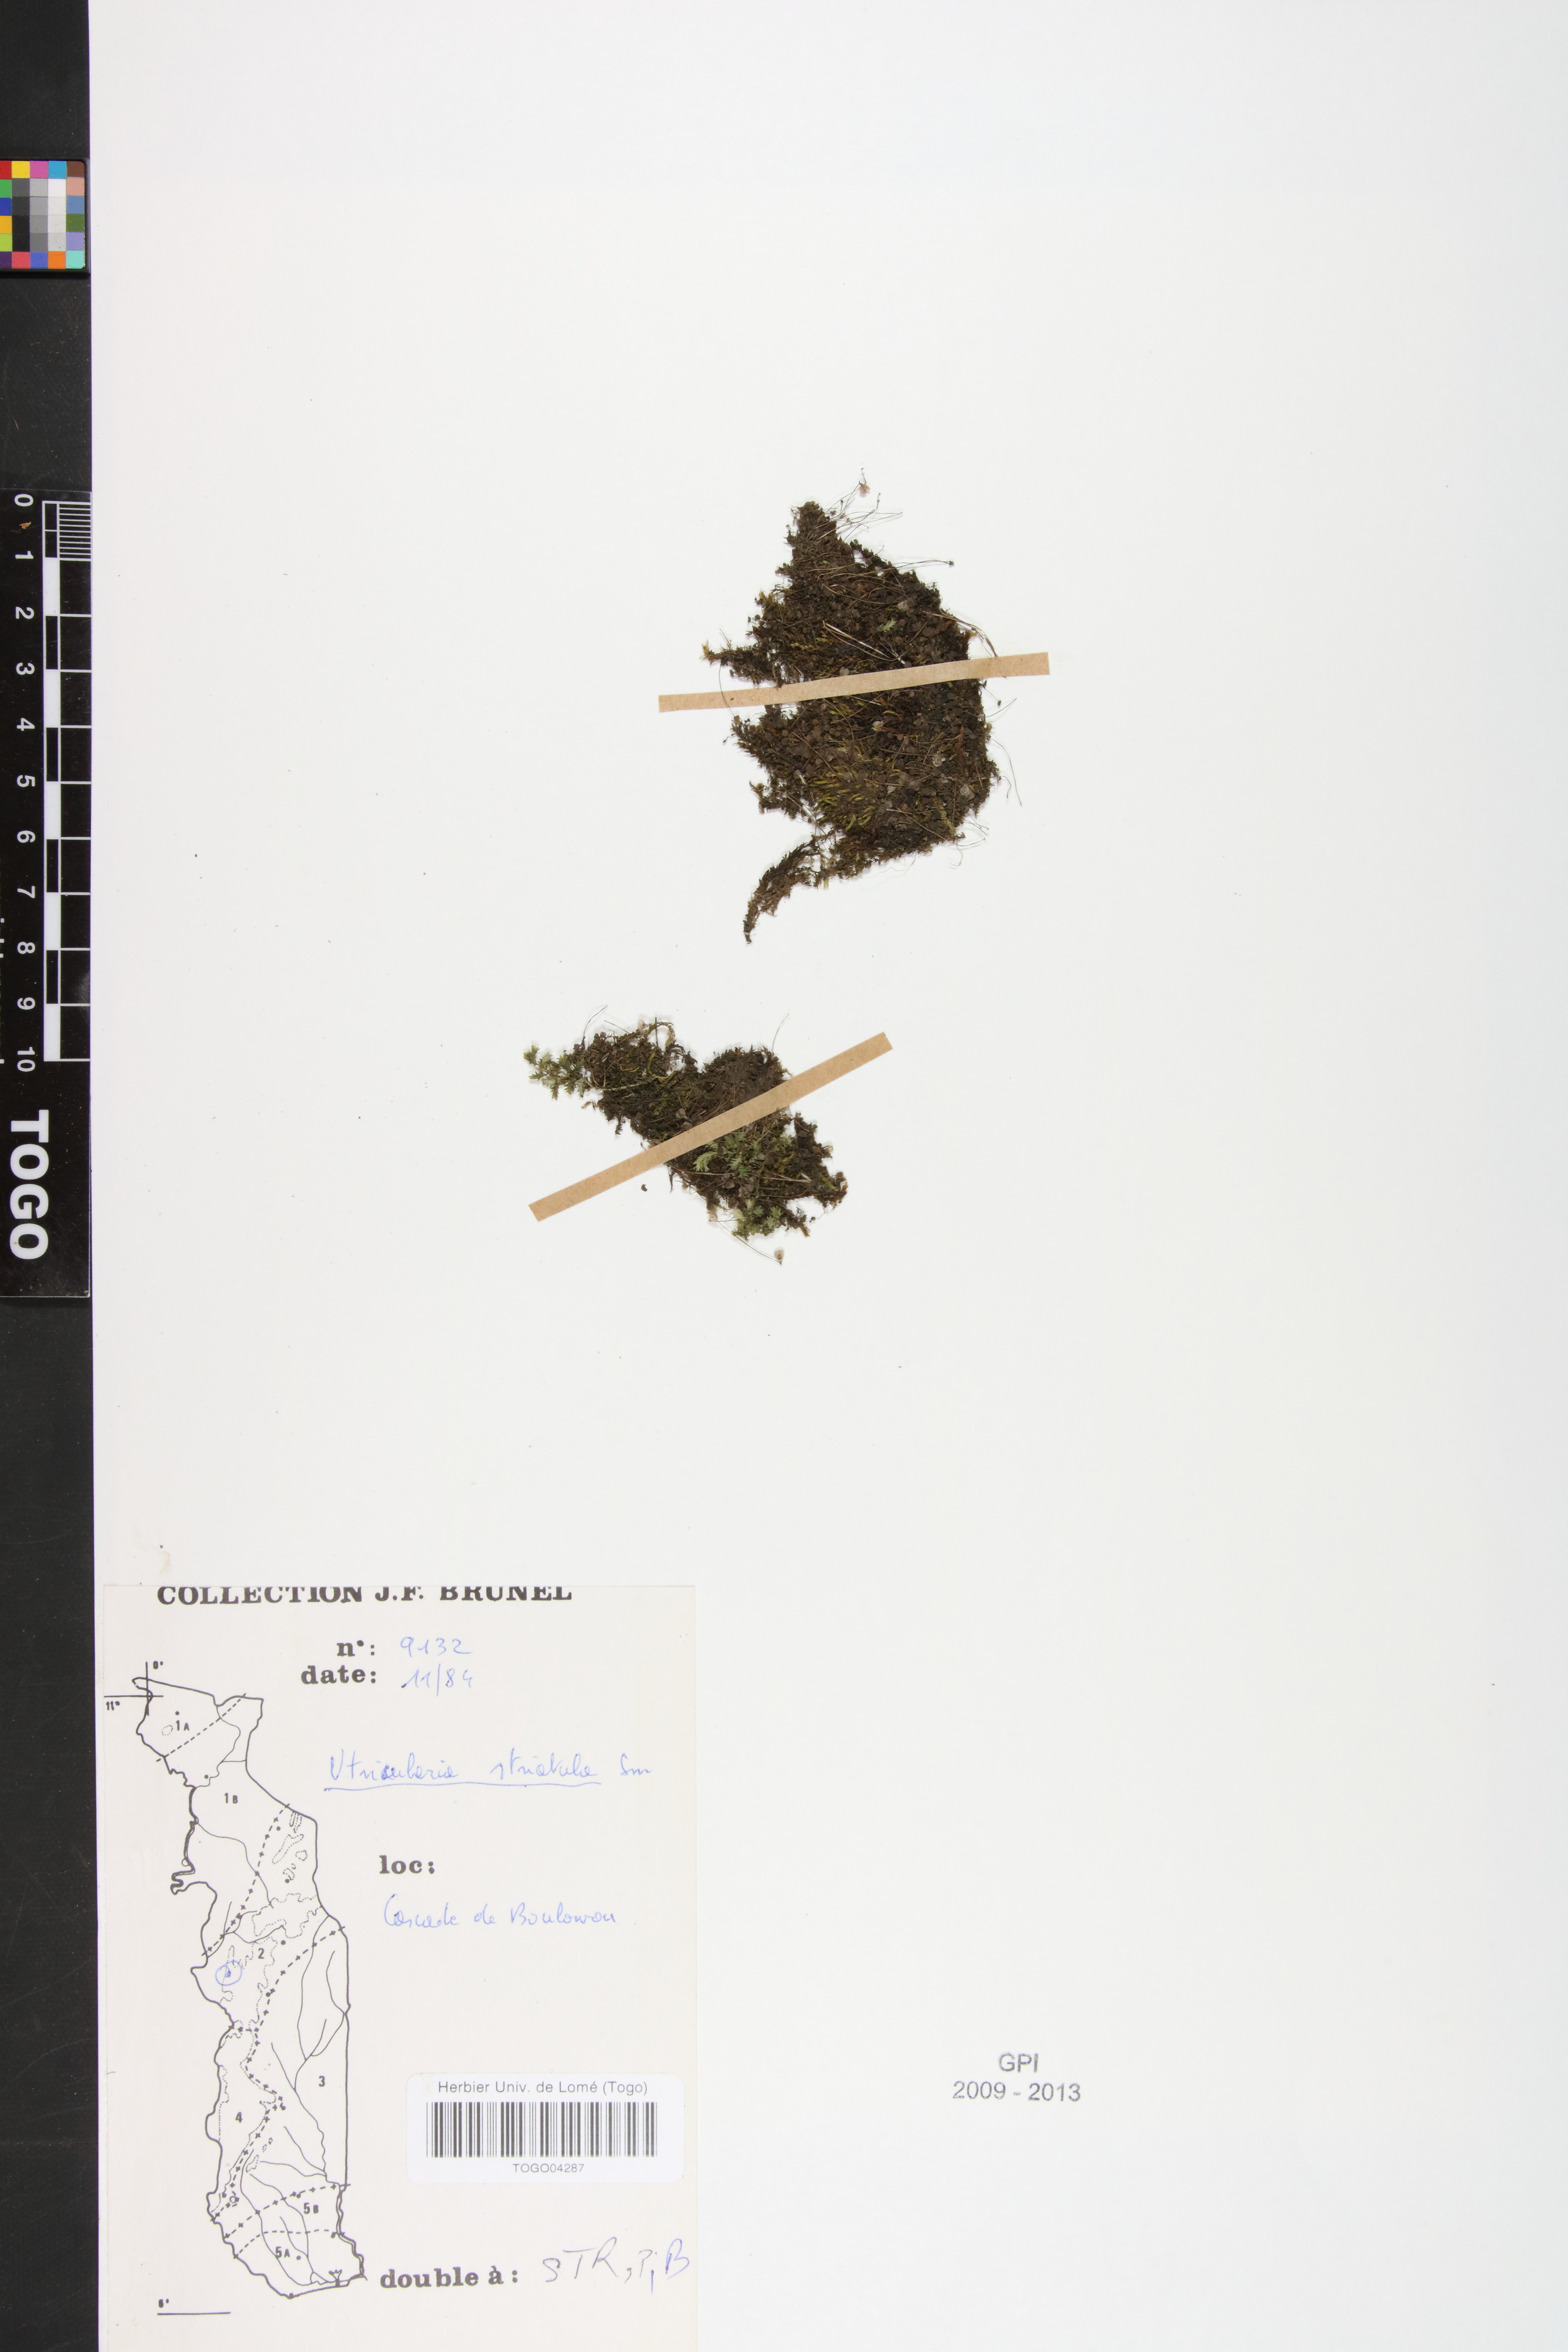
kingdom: Plantae
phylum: Tracheophyta
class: Magnoliopsida
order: Lamiales
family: Lentibulariaceae
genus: Utricularia
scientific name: Utricularia striatula
